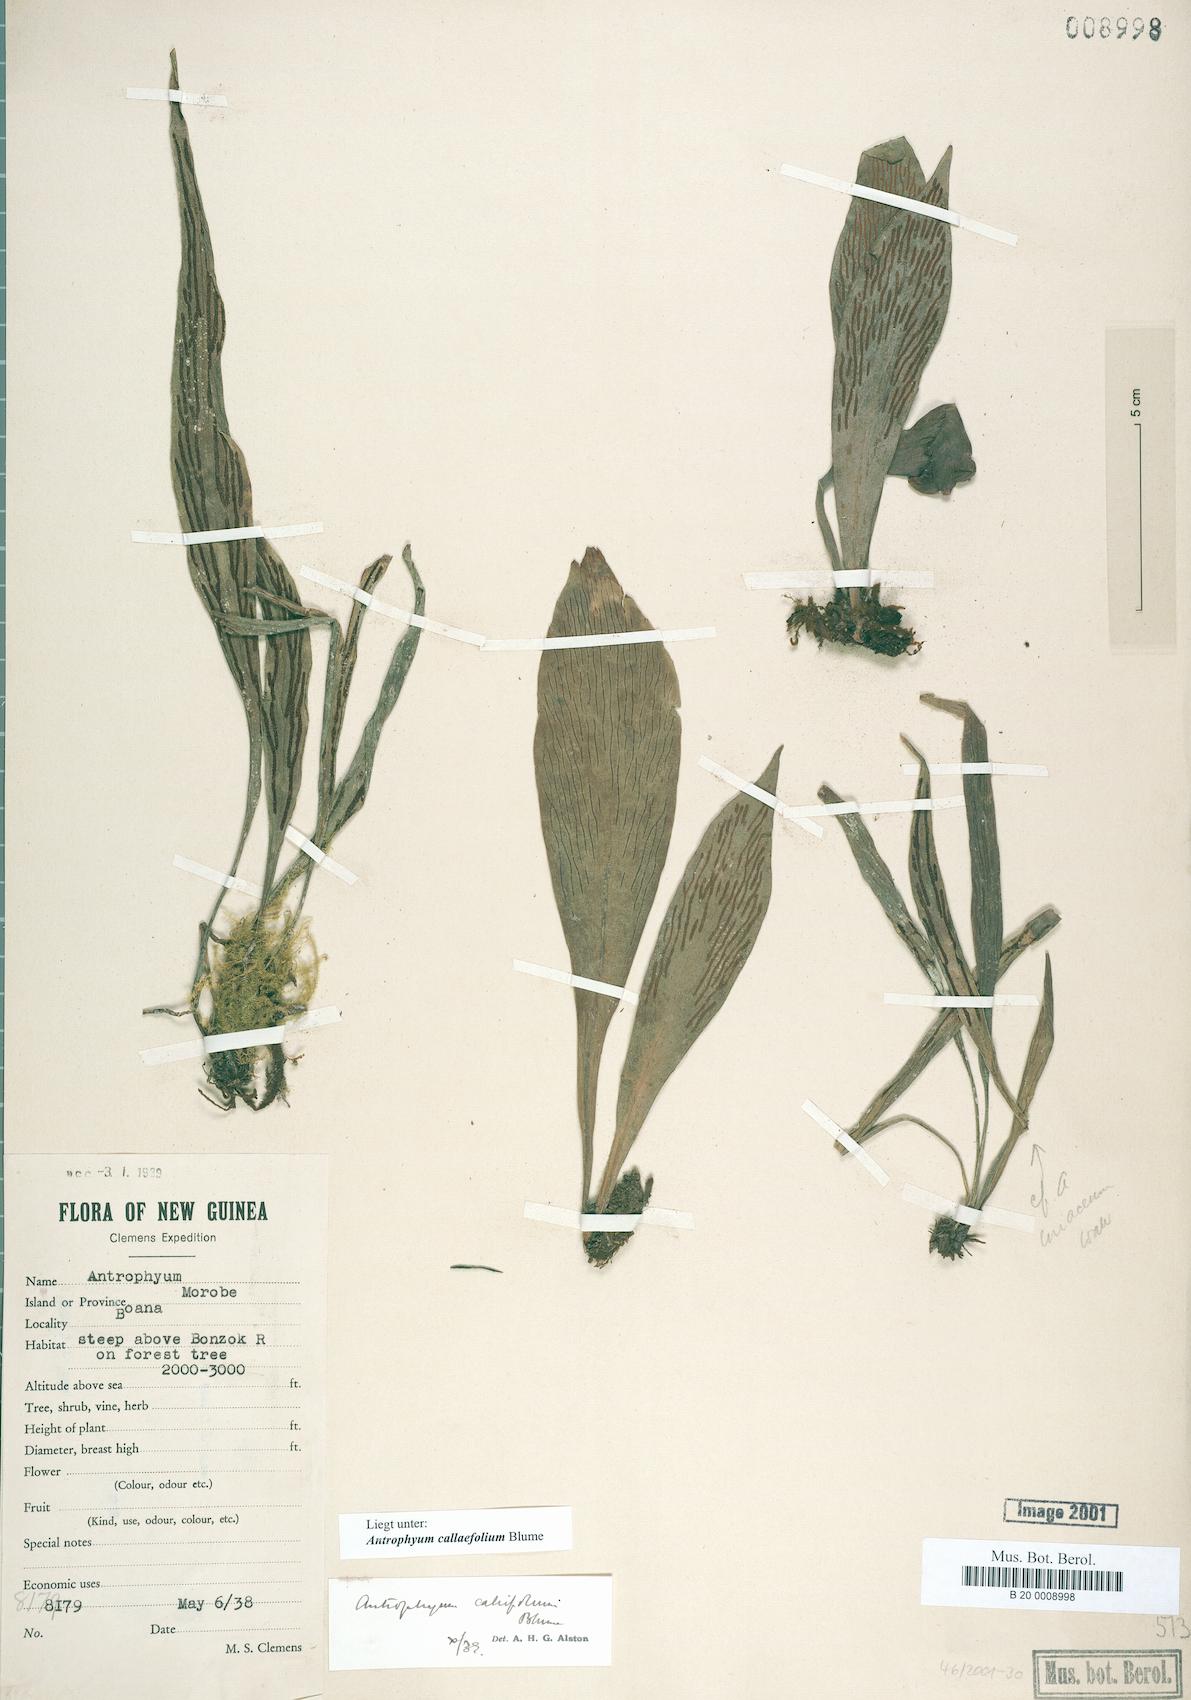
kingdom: Plantae
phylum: Tracheophyta
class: Polypodiopsida
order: Polypodiales
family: Pteridaceae
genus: Antrophyum
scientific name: Antrophyum callifolium
